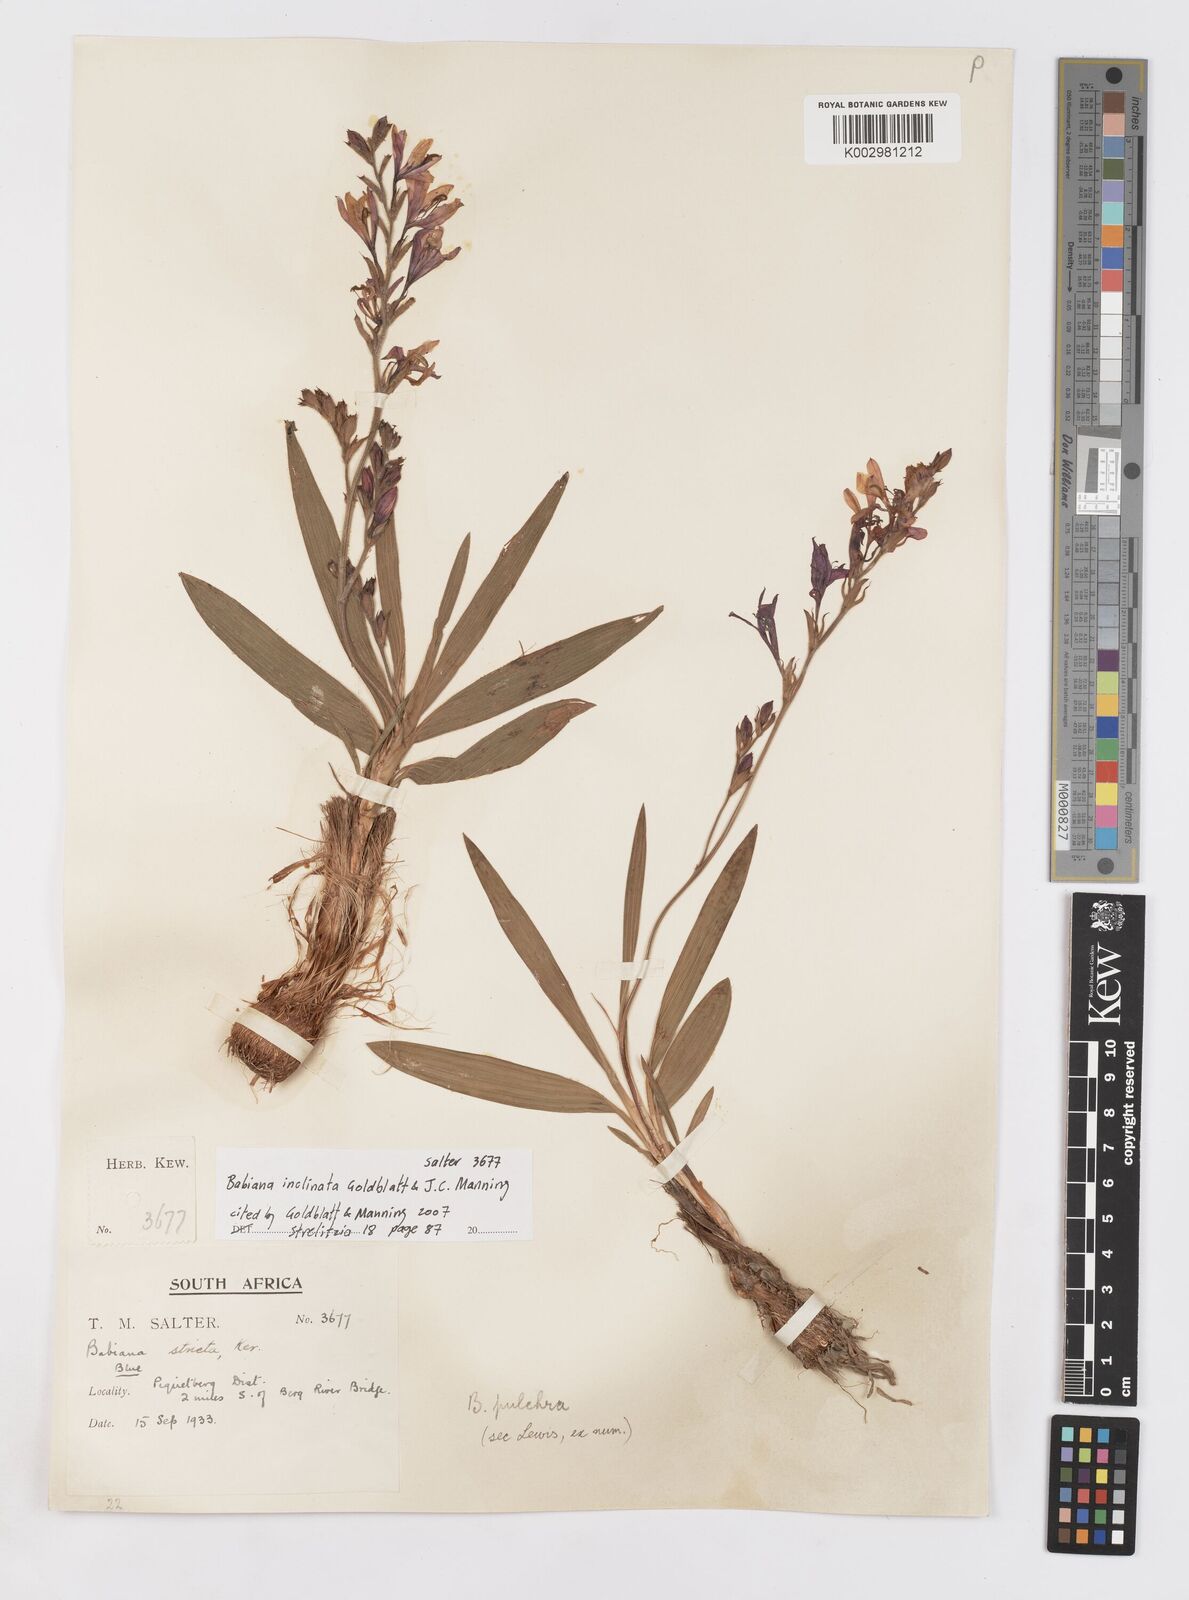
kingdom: Plantae
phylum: Tracheophyta
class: Liliopsida
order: Asparagales
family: Iridaceae
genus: Babiana
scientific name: Babiana inclinata
